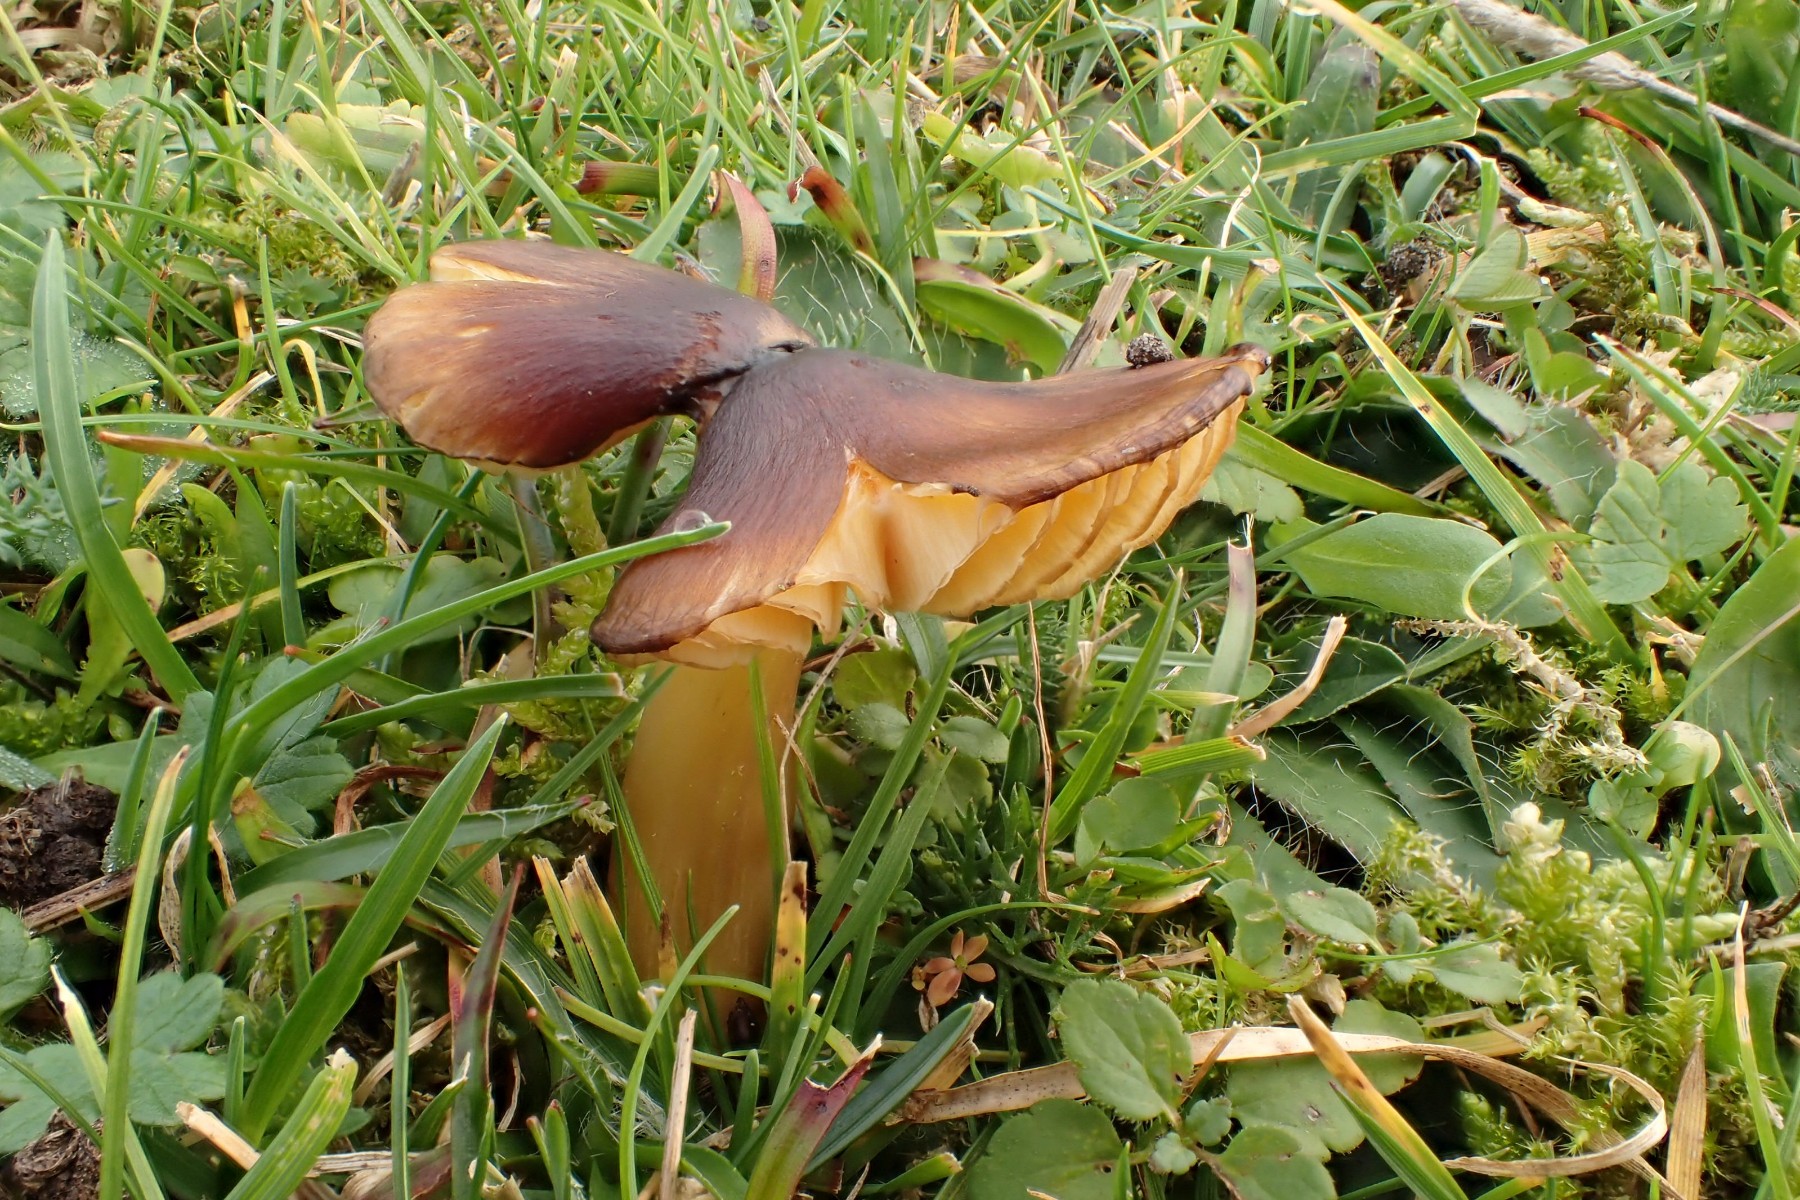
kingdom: Fungi
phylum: Basidiomycota
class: Agaricomycetes
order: Agaricales
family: Hygrophoraceae
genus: Hygrocybe
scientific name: Hygrocybe spadicea
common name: daddelbrun vokshat
